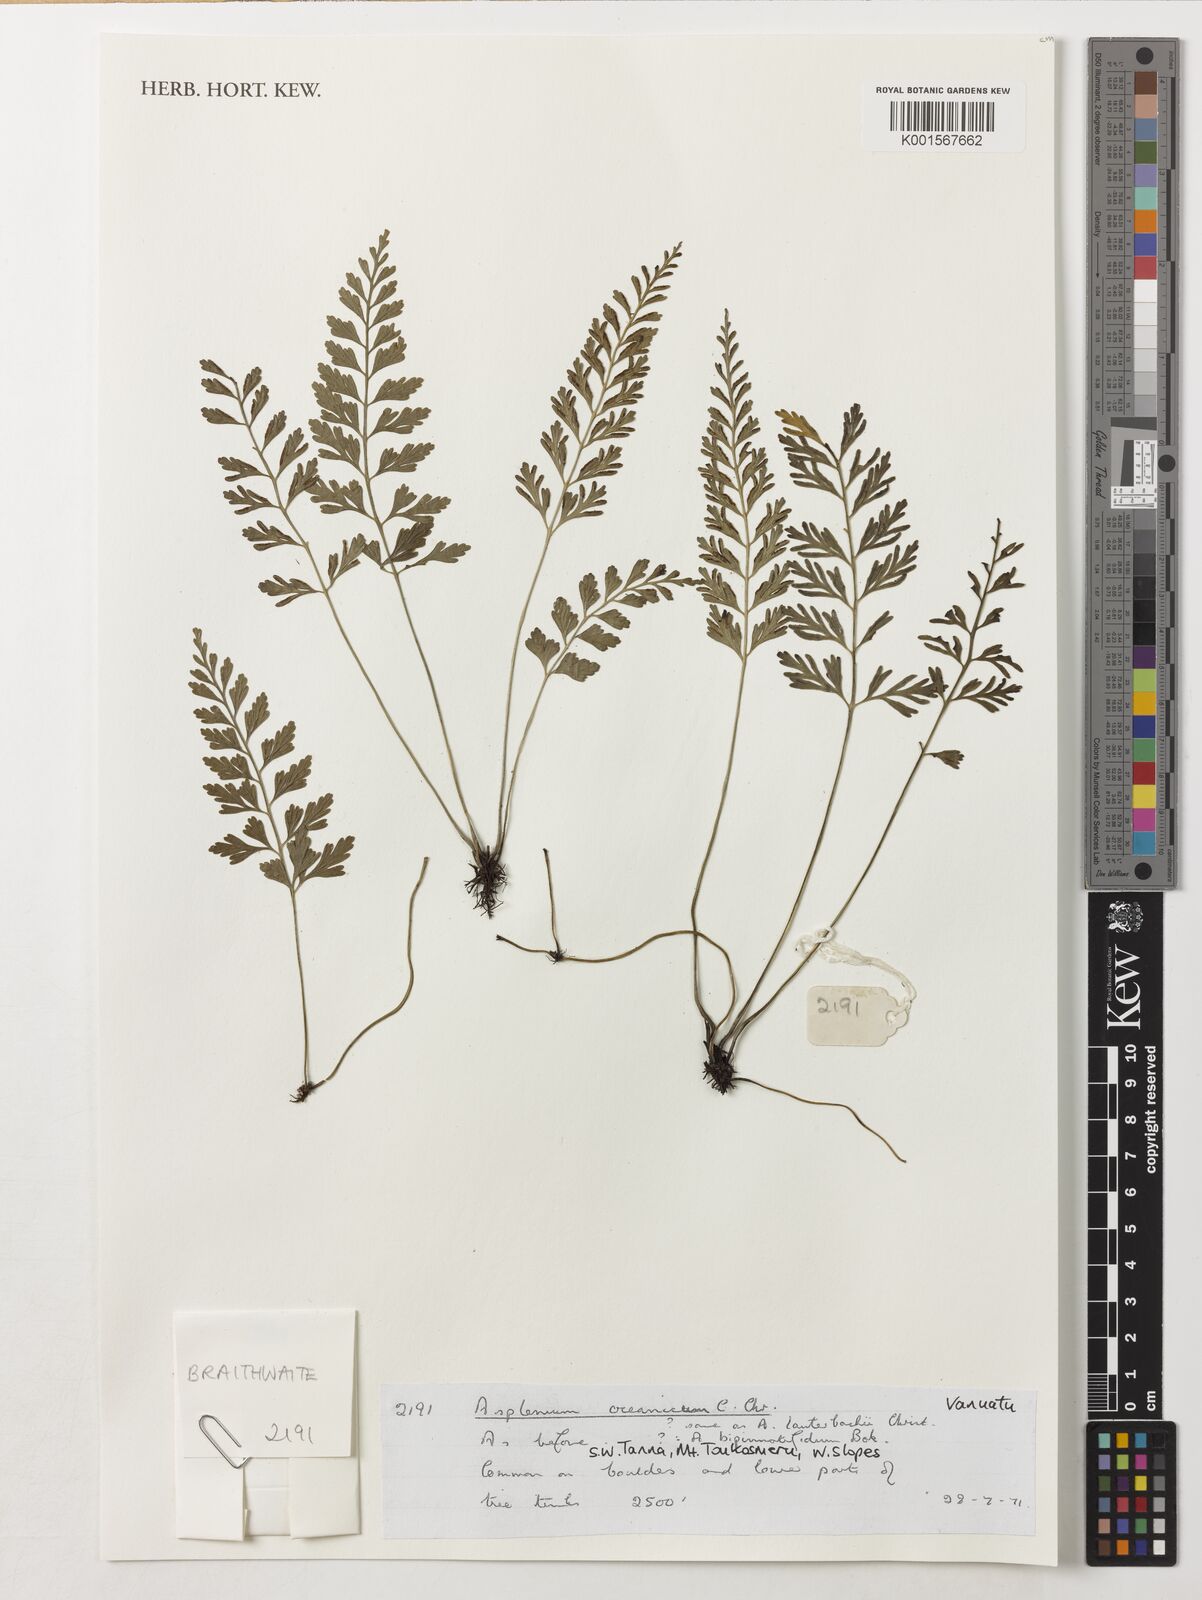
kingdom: Plantae
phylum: Tracheophyta
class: Polypodiopsida
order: Polypodiales
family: Aspleniaceae
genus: Asplenium
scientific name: Asplenium bipinnatifidum
